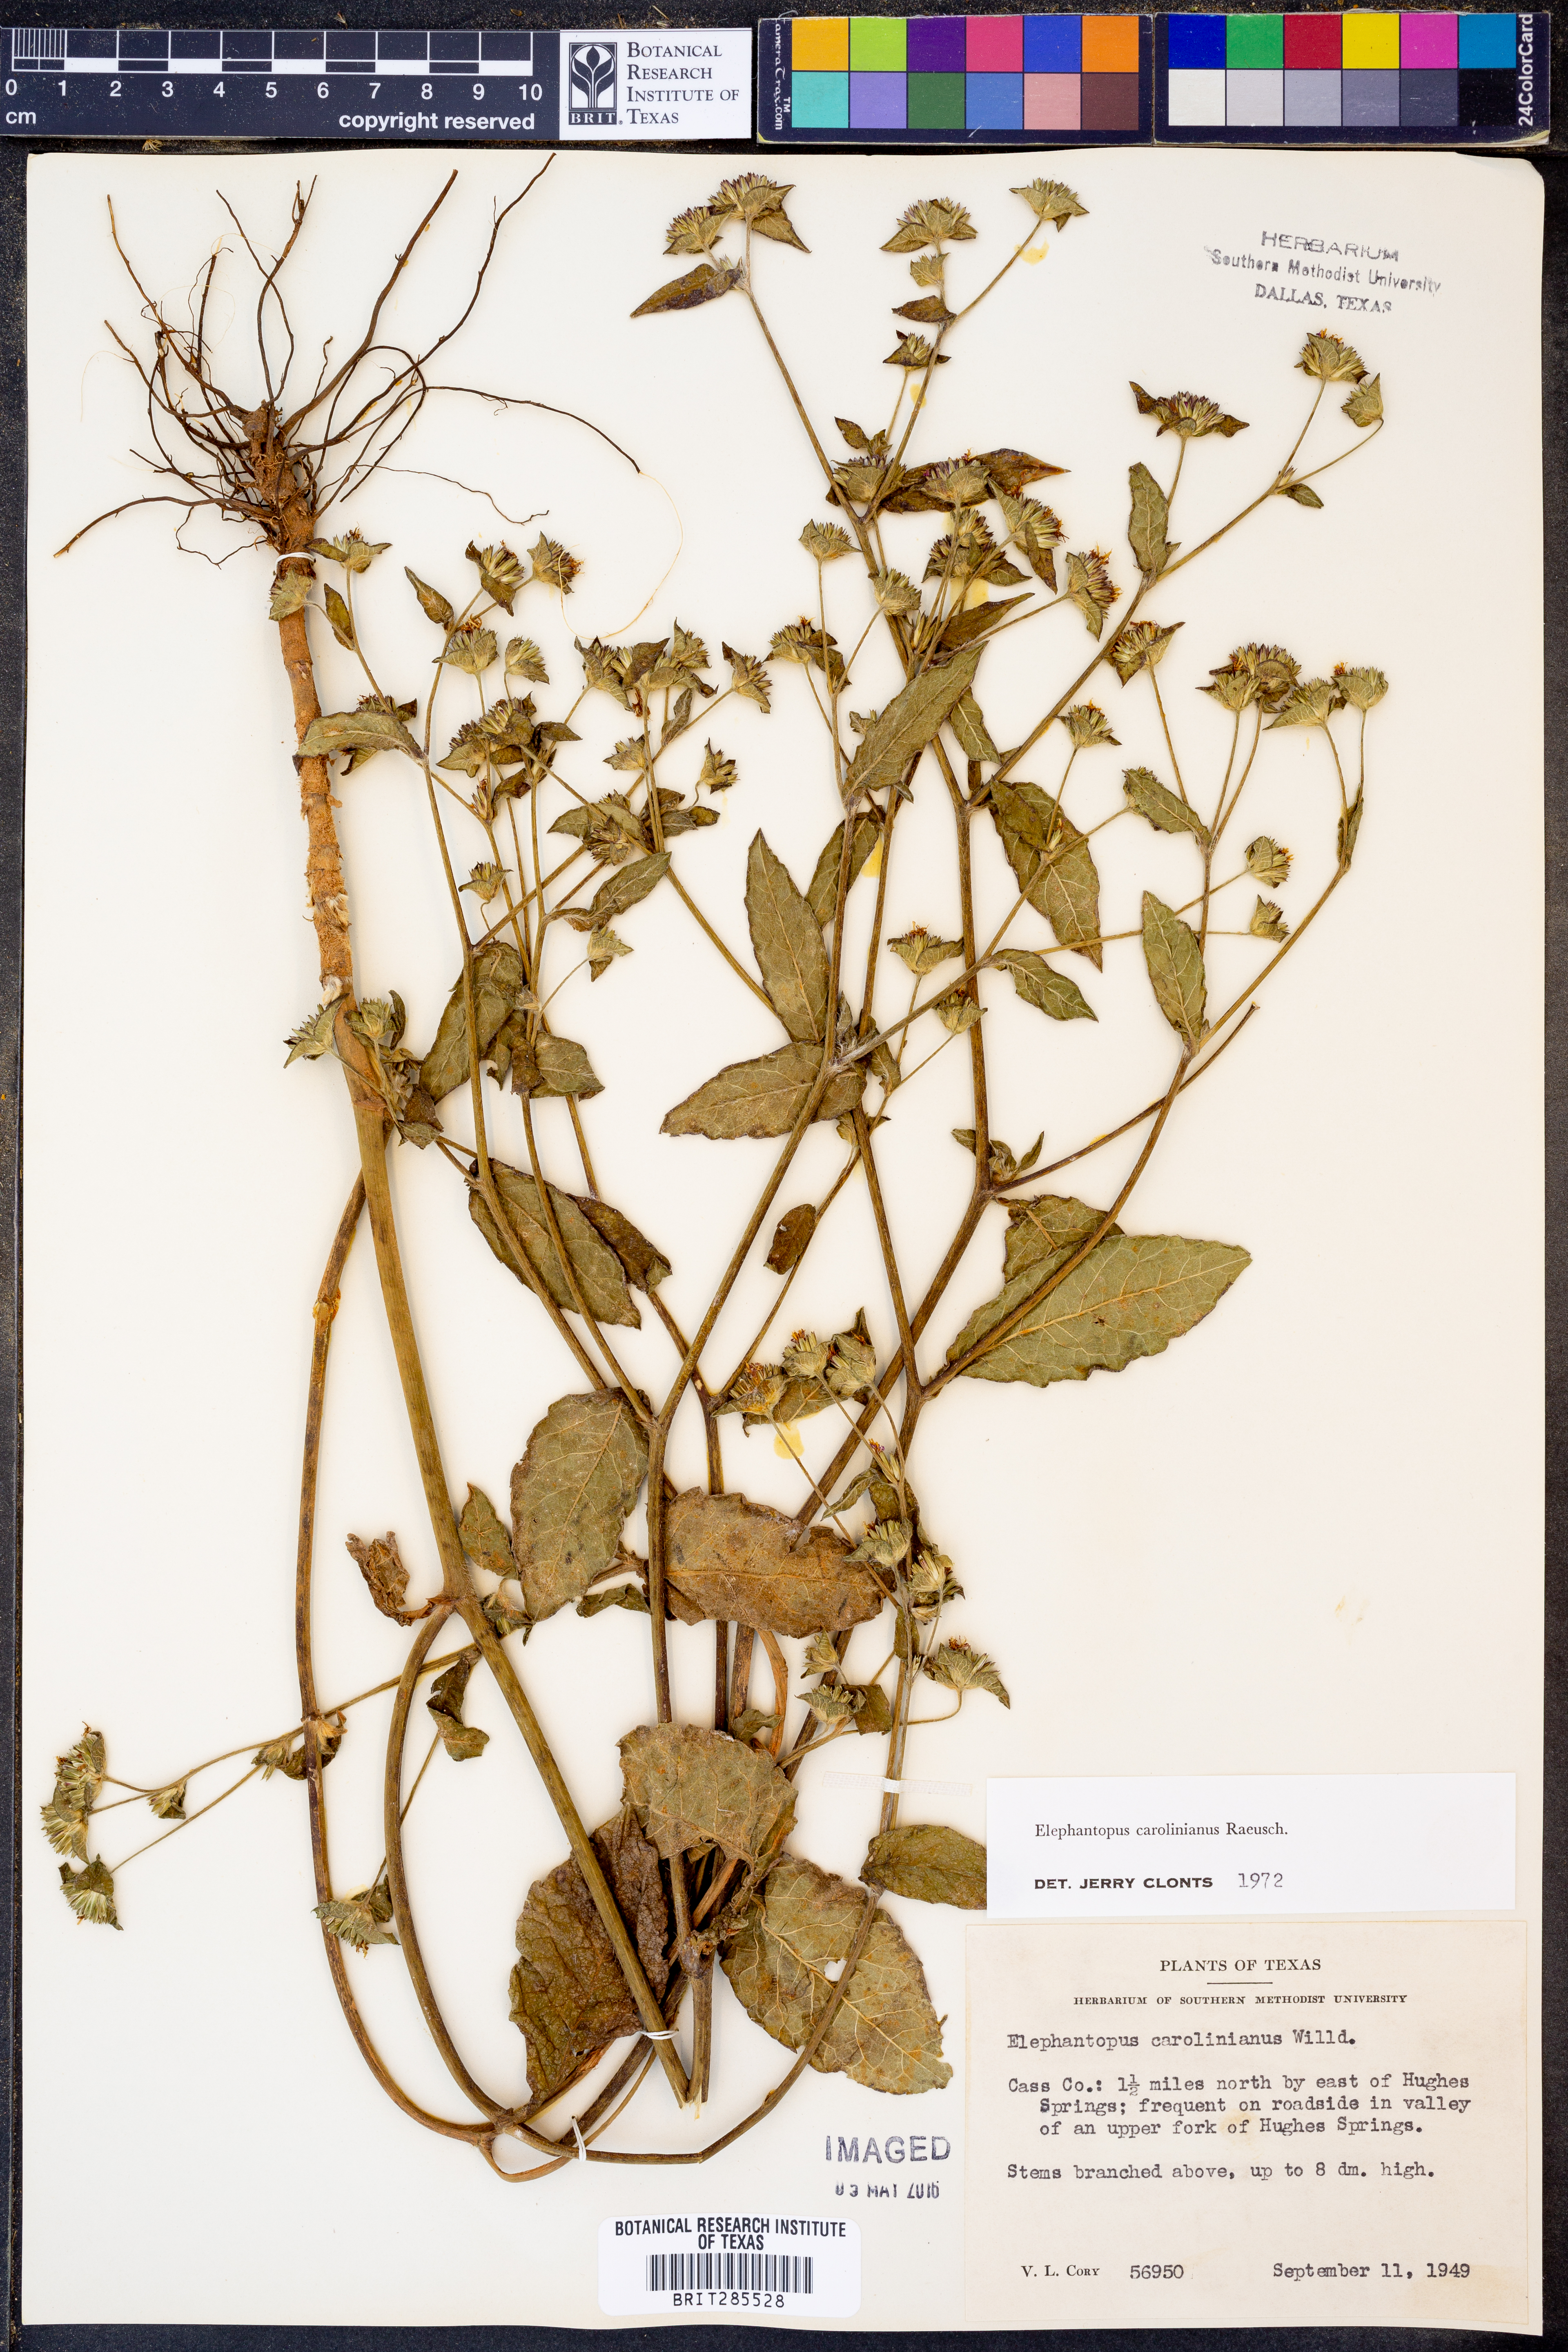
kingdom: Plantae
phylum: Tracheophyta
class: Magnoliopsida
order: Asterales
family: Asteraceae
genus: Elephantopus
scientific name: Elephantopus carolinianus
